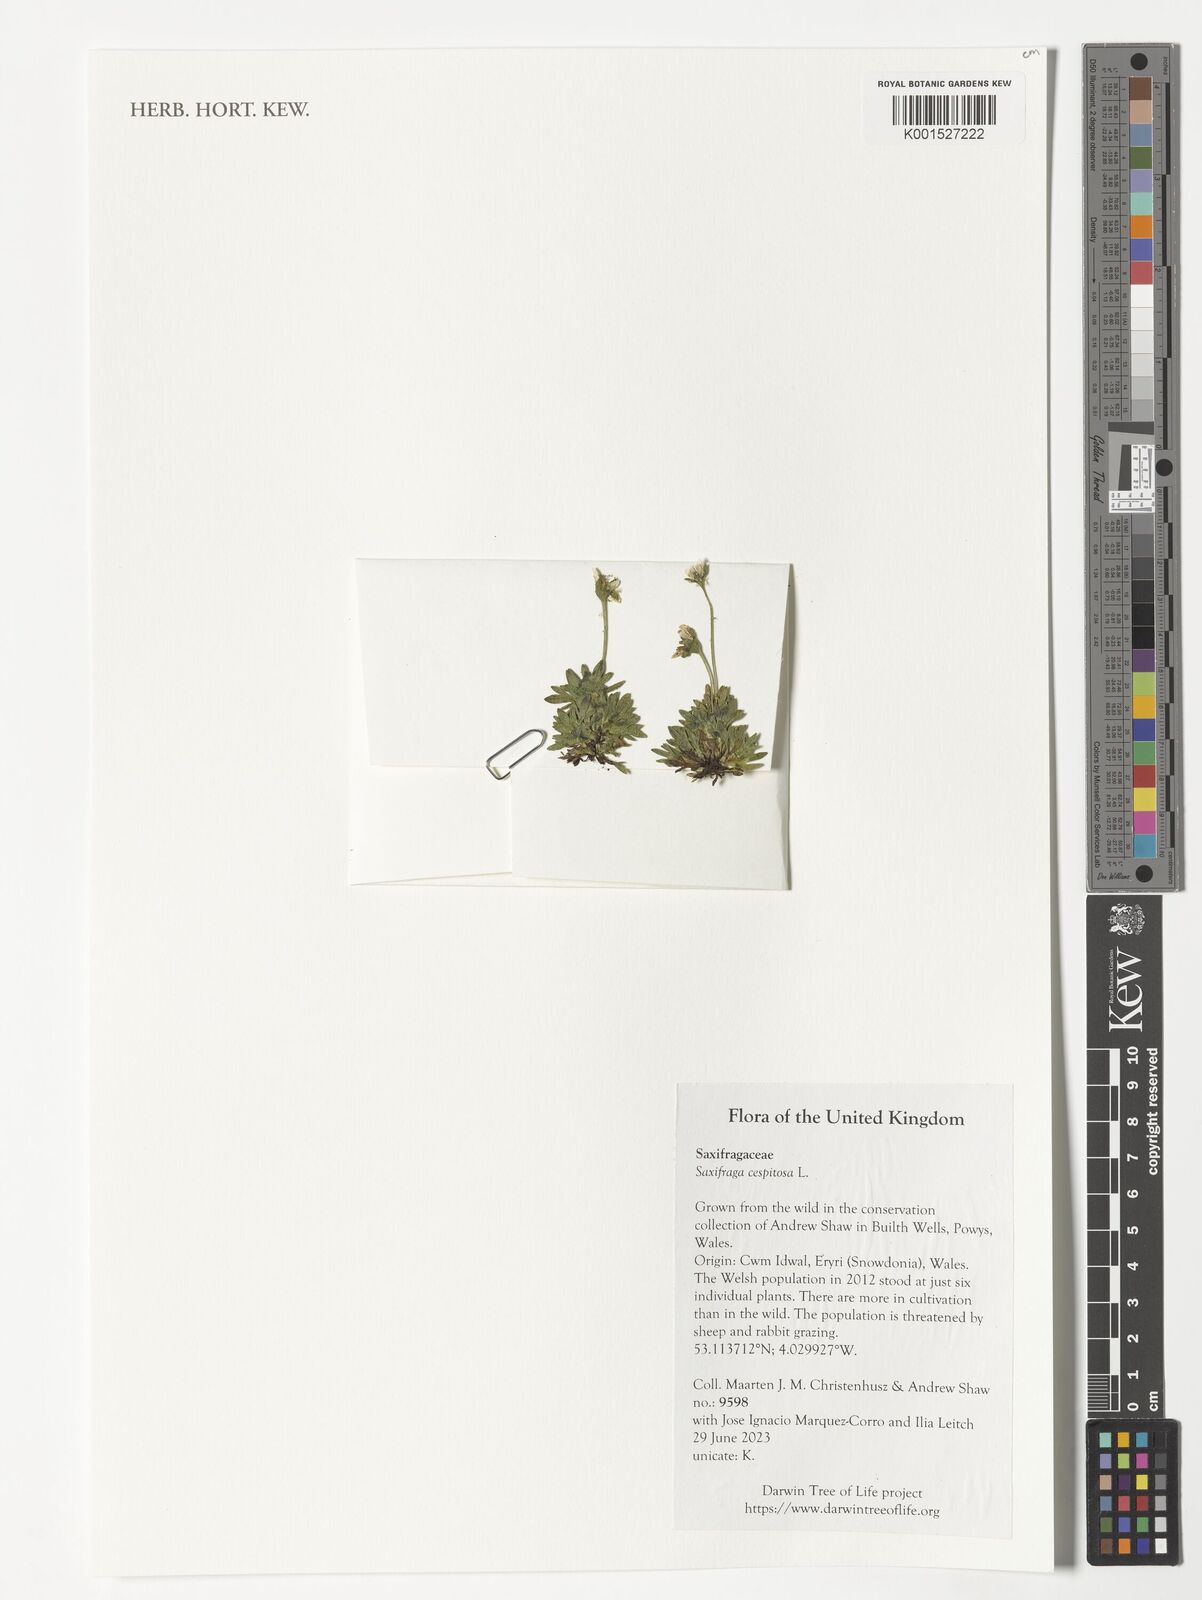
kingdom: Plantae
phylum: Tracheophyta
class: Magnoliopsida
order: Saxifragales
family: Saxifragaceae
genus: Saxifraga
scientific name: Saxifraga cespitosa
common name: Tufted saxifrage
